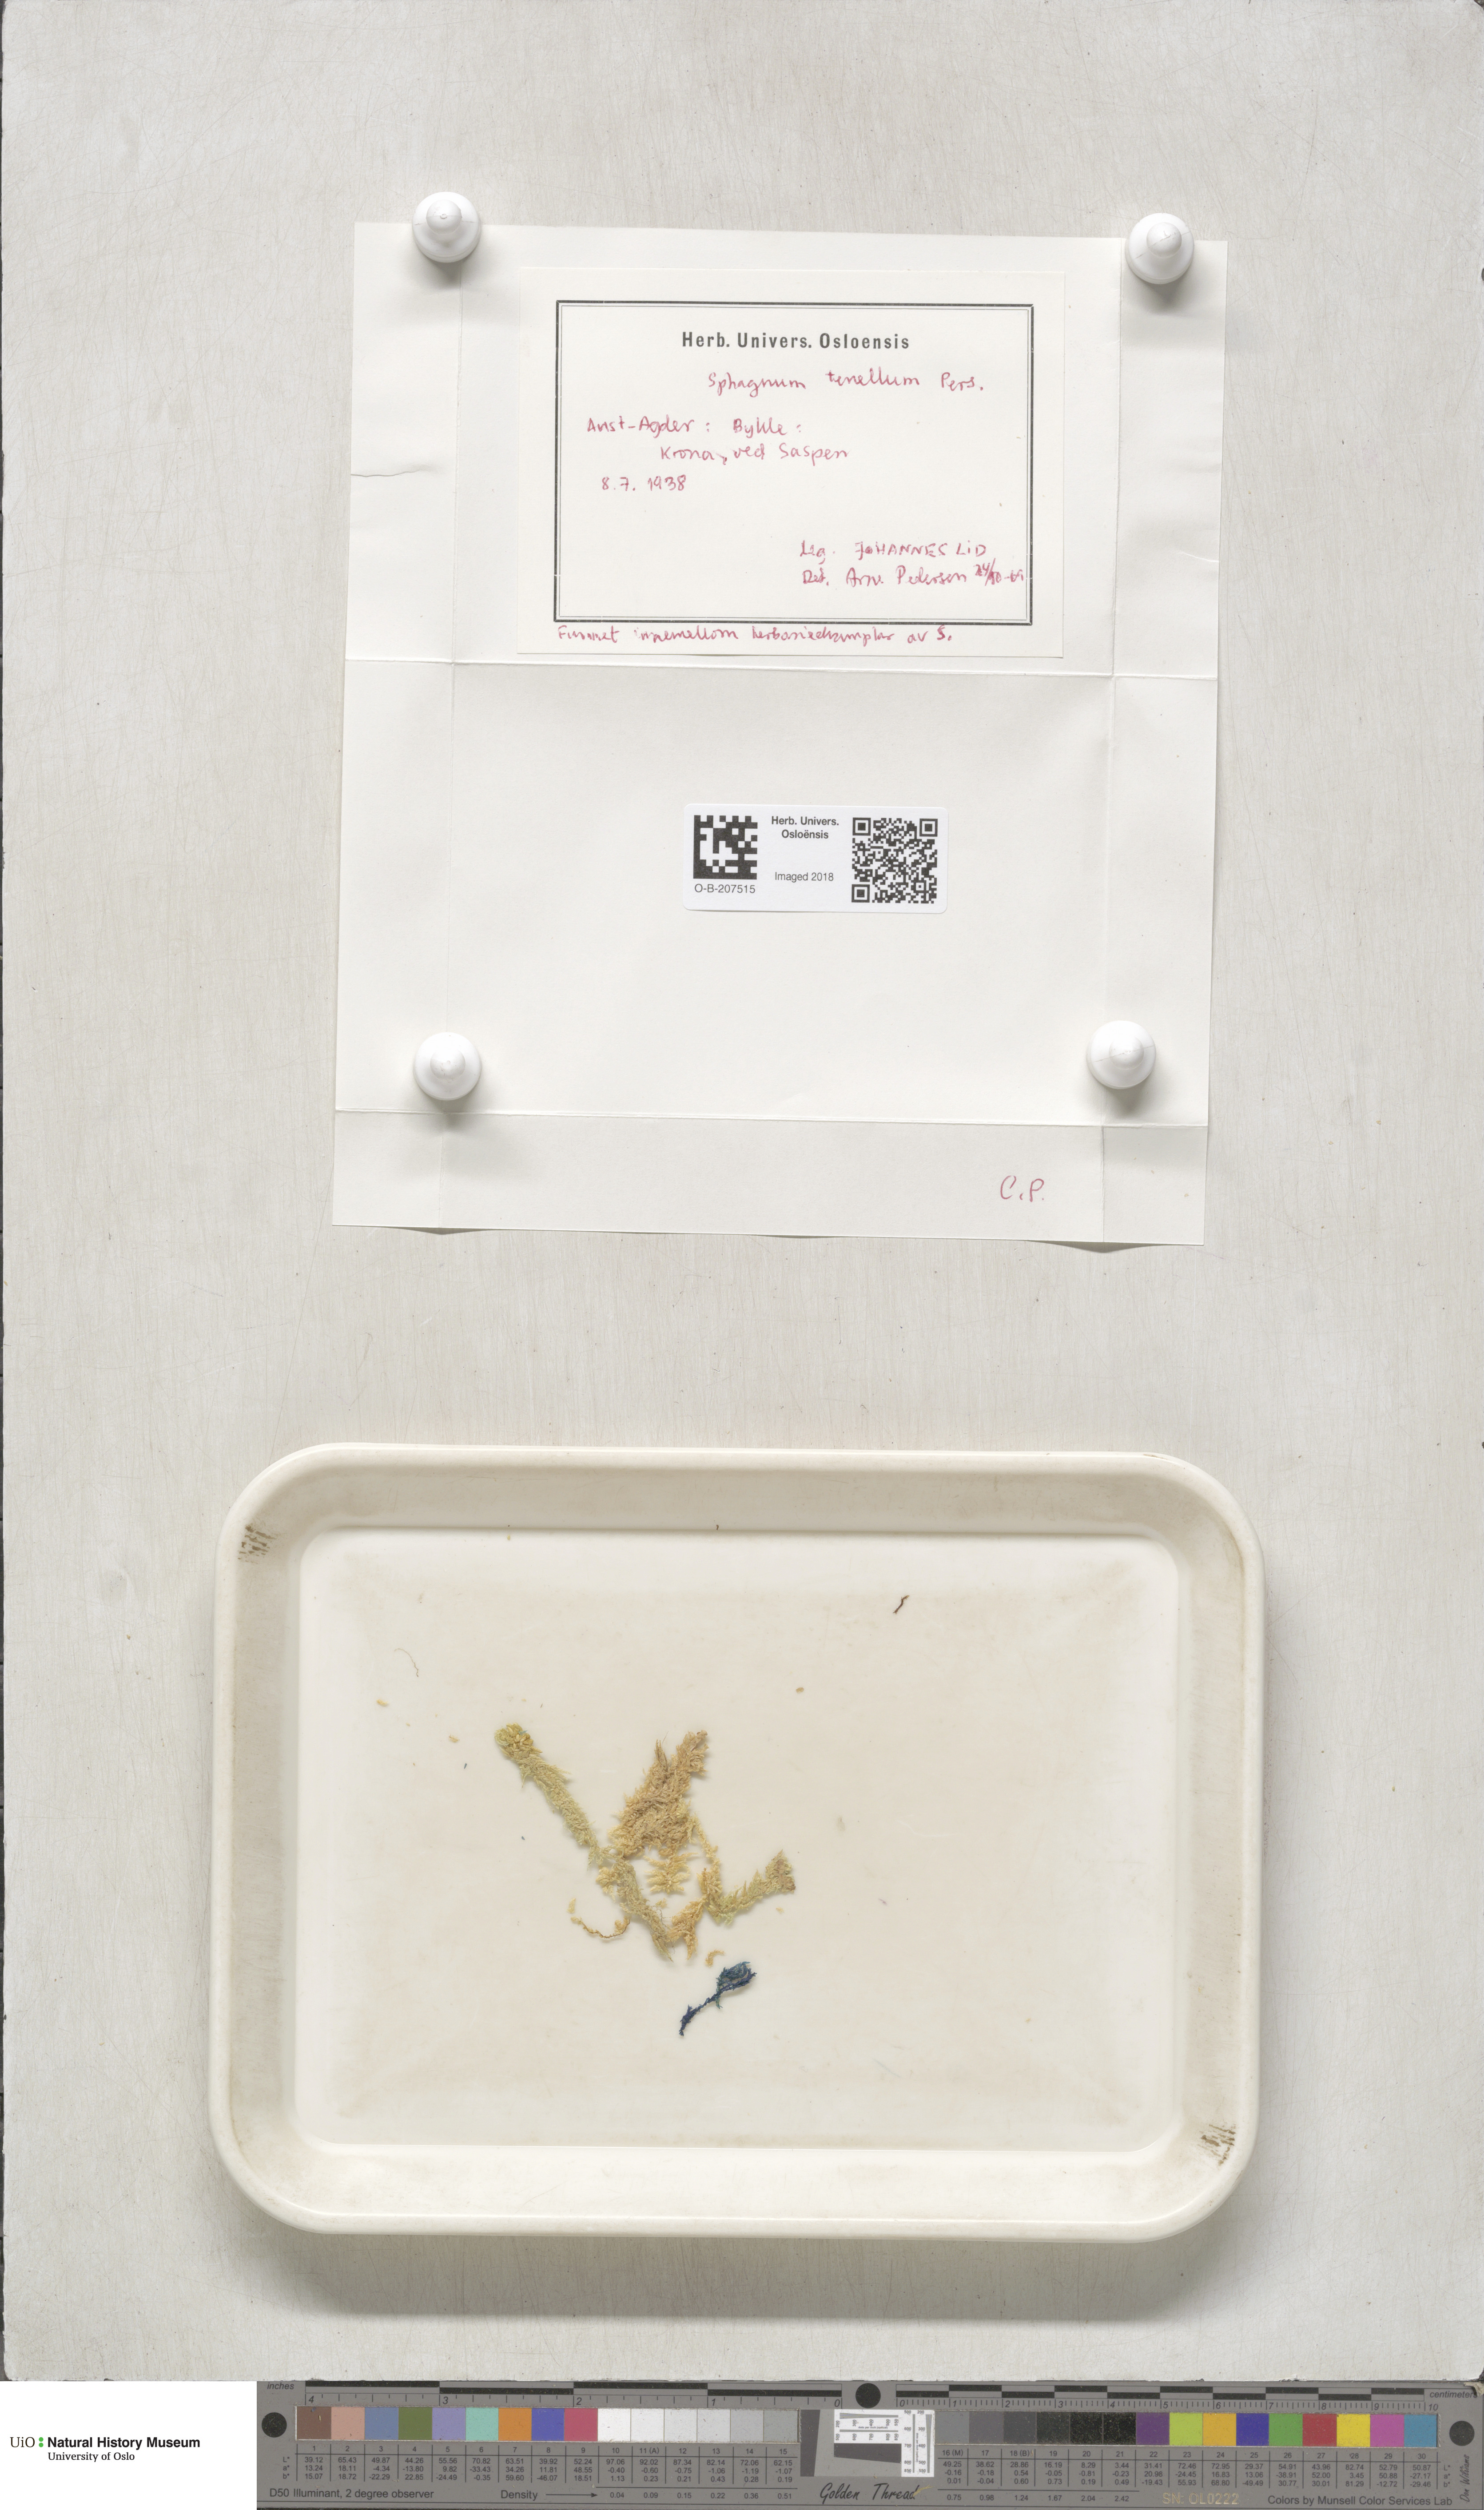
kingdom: Plantae
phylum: Bryophyta
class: Sphagnopsida
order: Sphagnales
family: Sphagnaceae
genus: Sphagnum
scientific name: Sphagnum tenellum
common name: Soft bog-moss
